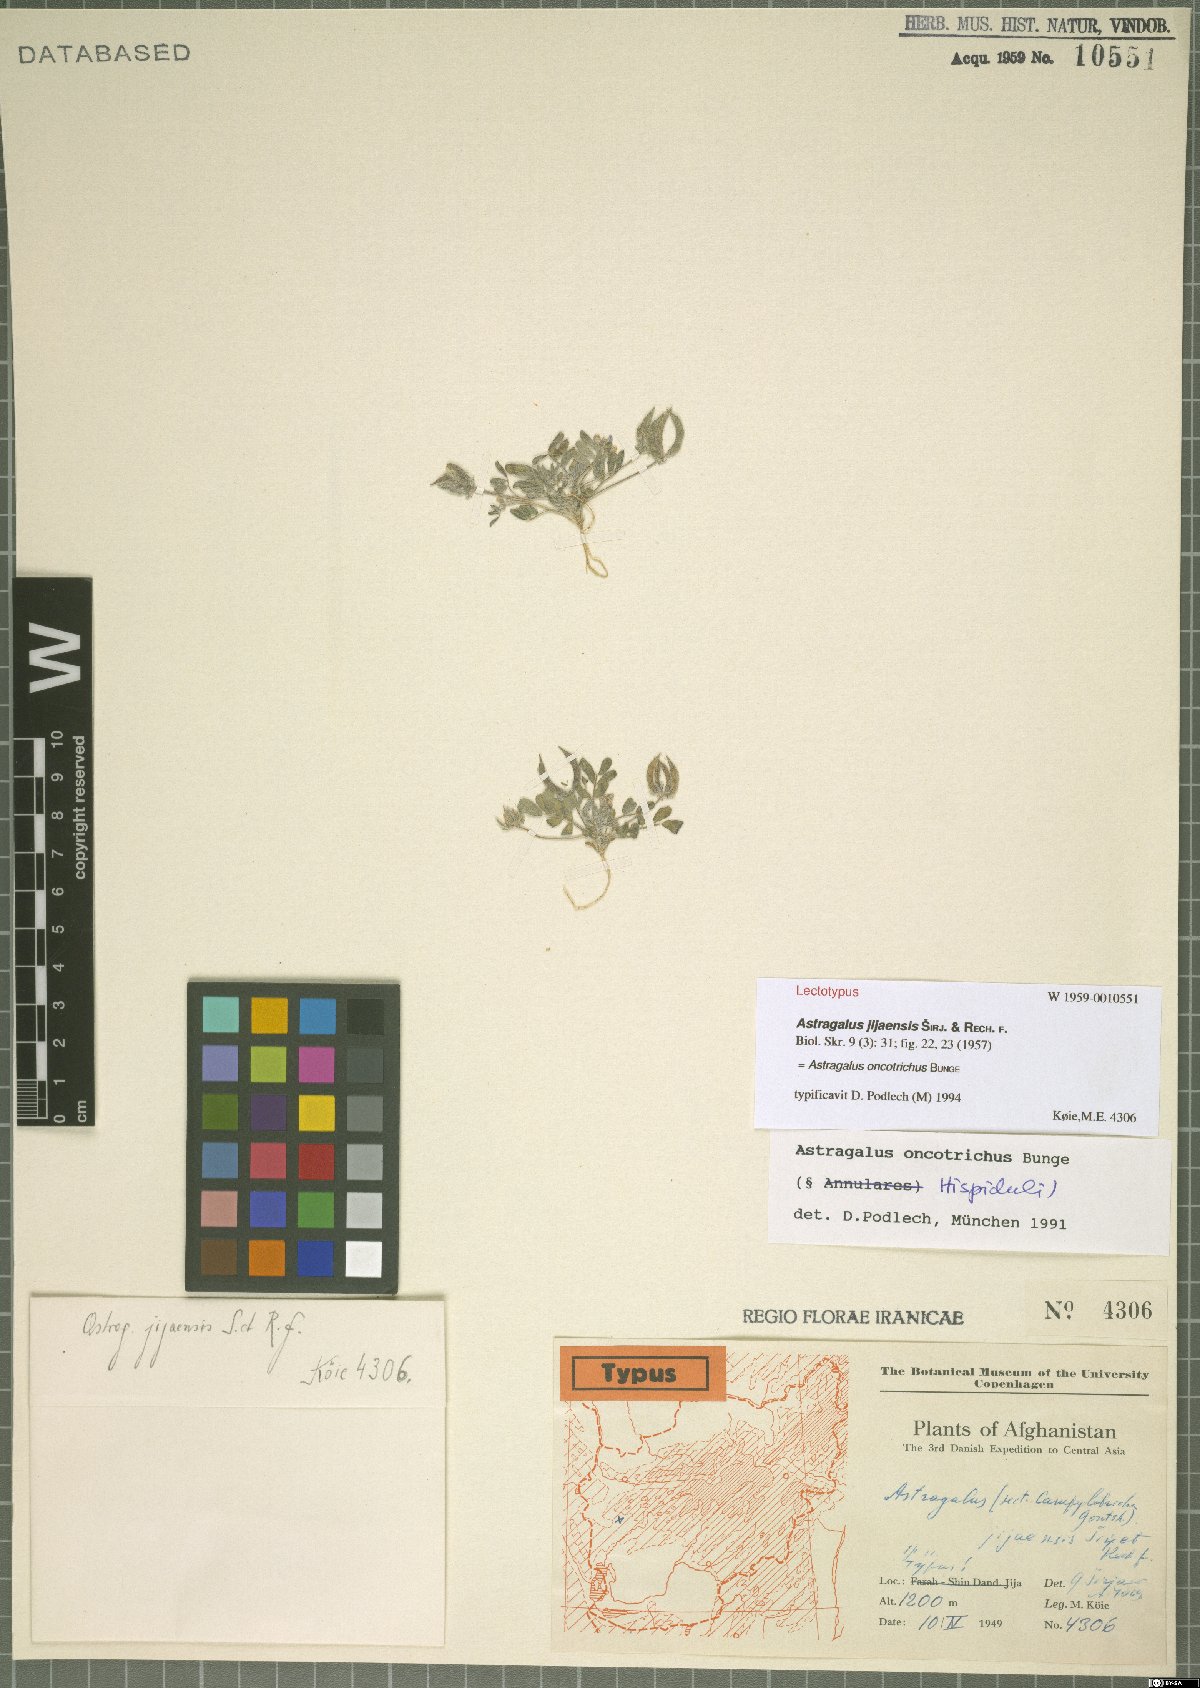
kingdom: Plantae
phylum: Tracheophyta
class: Magnoliopsida
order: Fabales
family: Fabaceae
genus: Astragalus
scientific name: Astragalus oncotrichus
